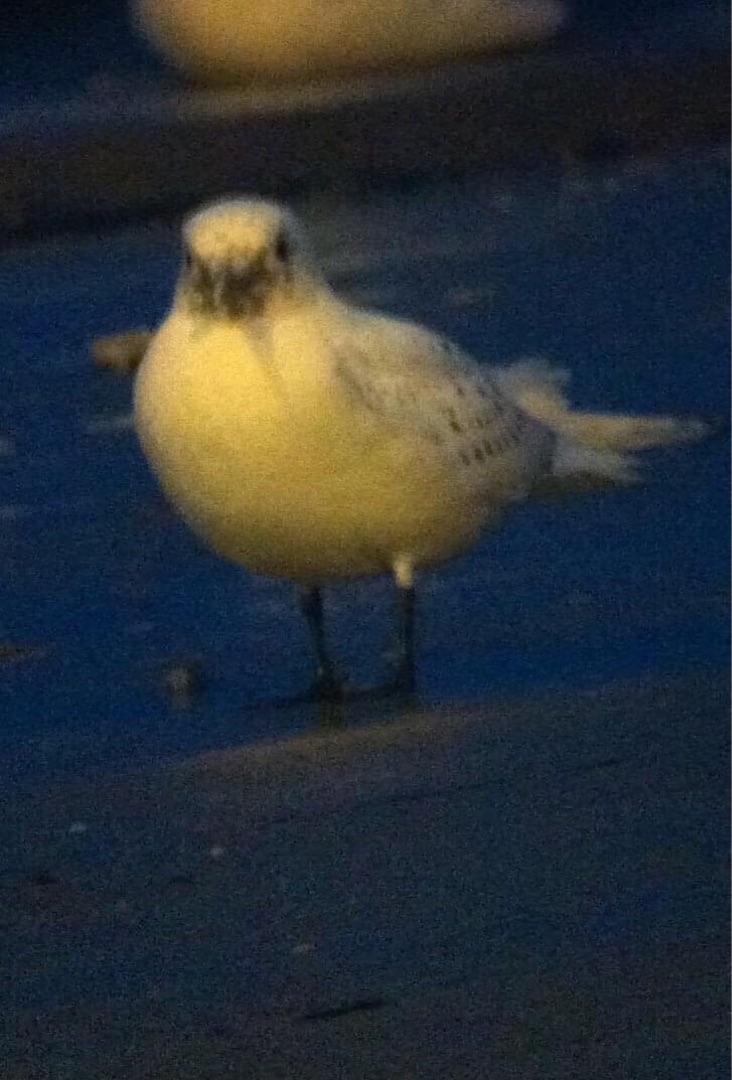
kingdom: Animalia
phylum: Chordata
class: Aves
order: Charadriiformes
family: Laridae
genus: Pagophila
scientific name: Pagophila eburnea
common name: Ismåge
